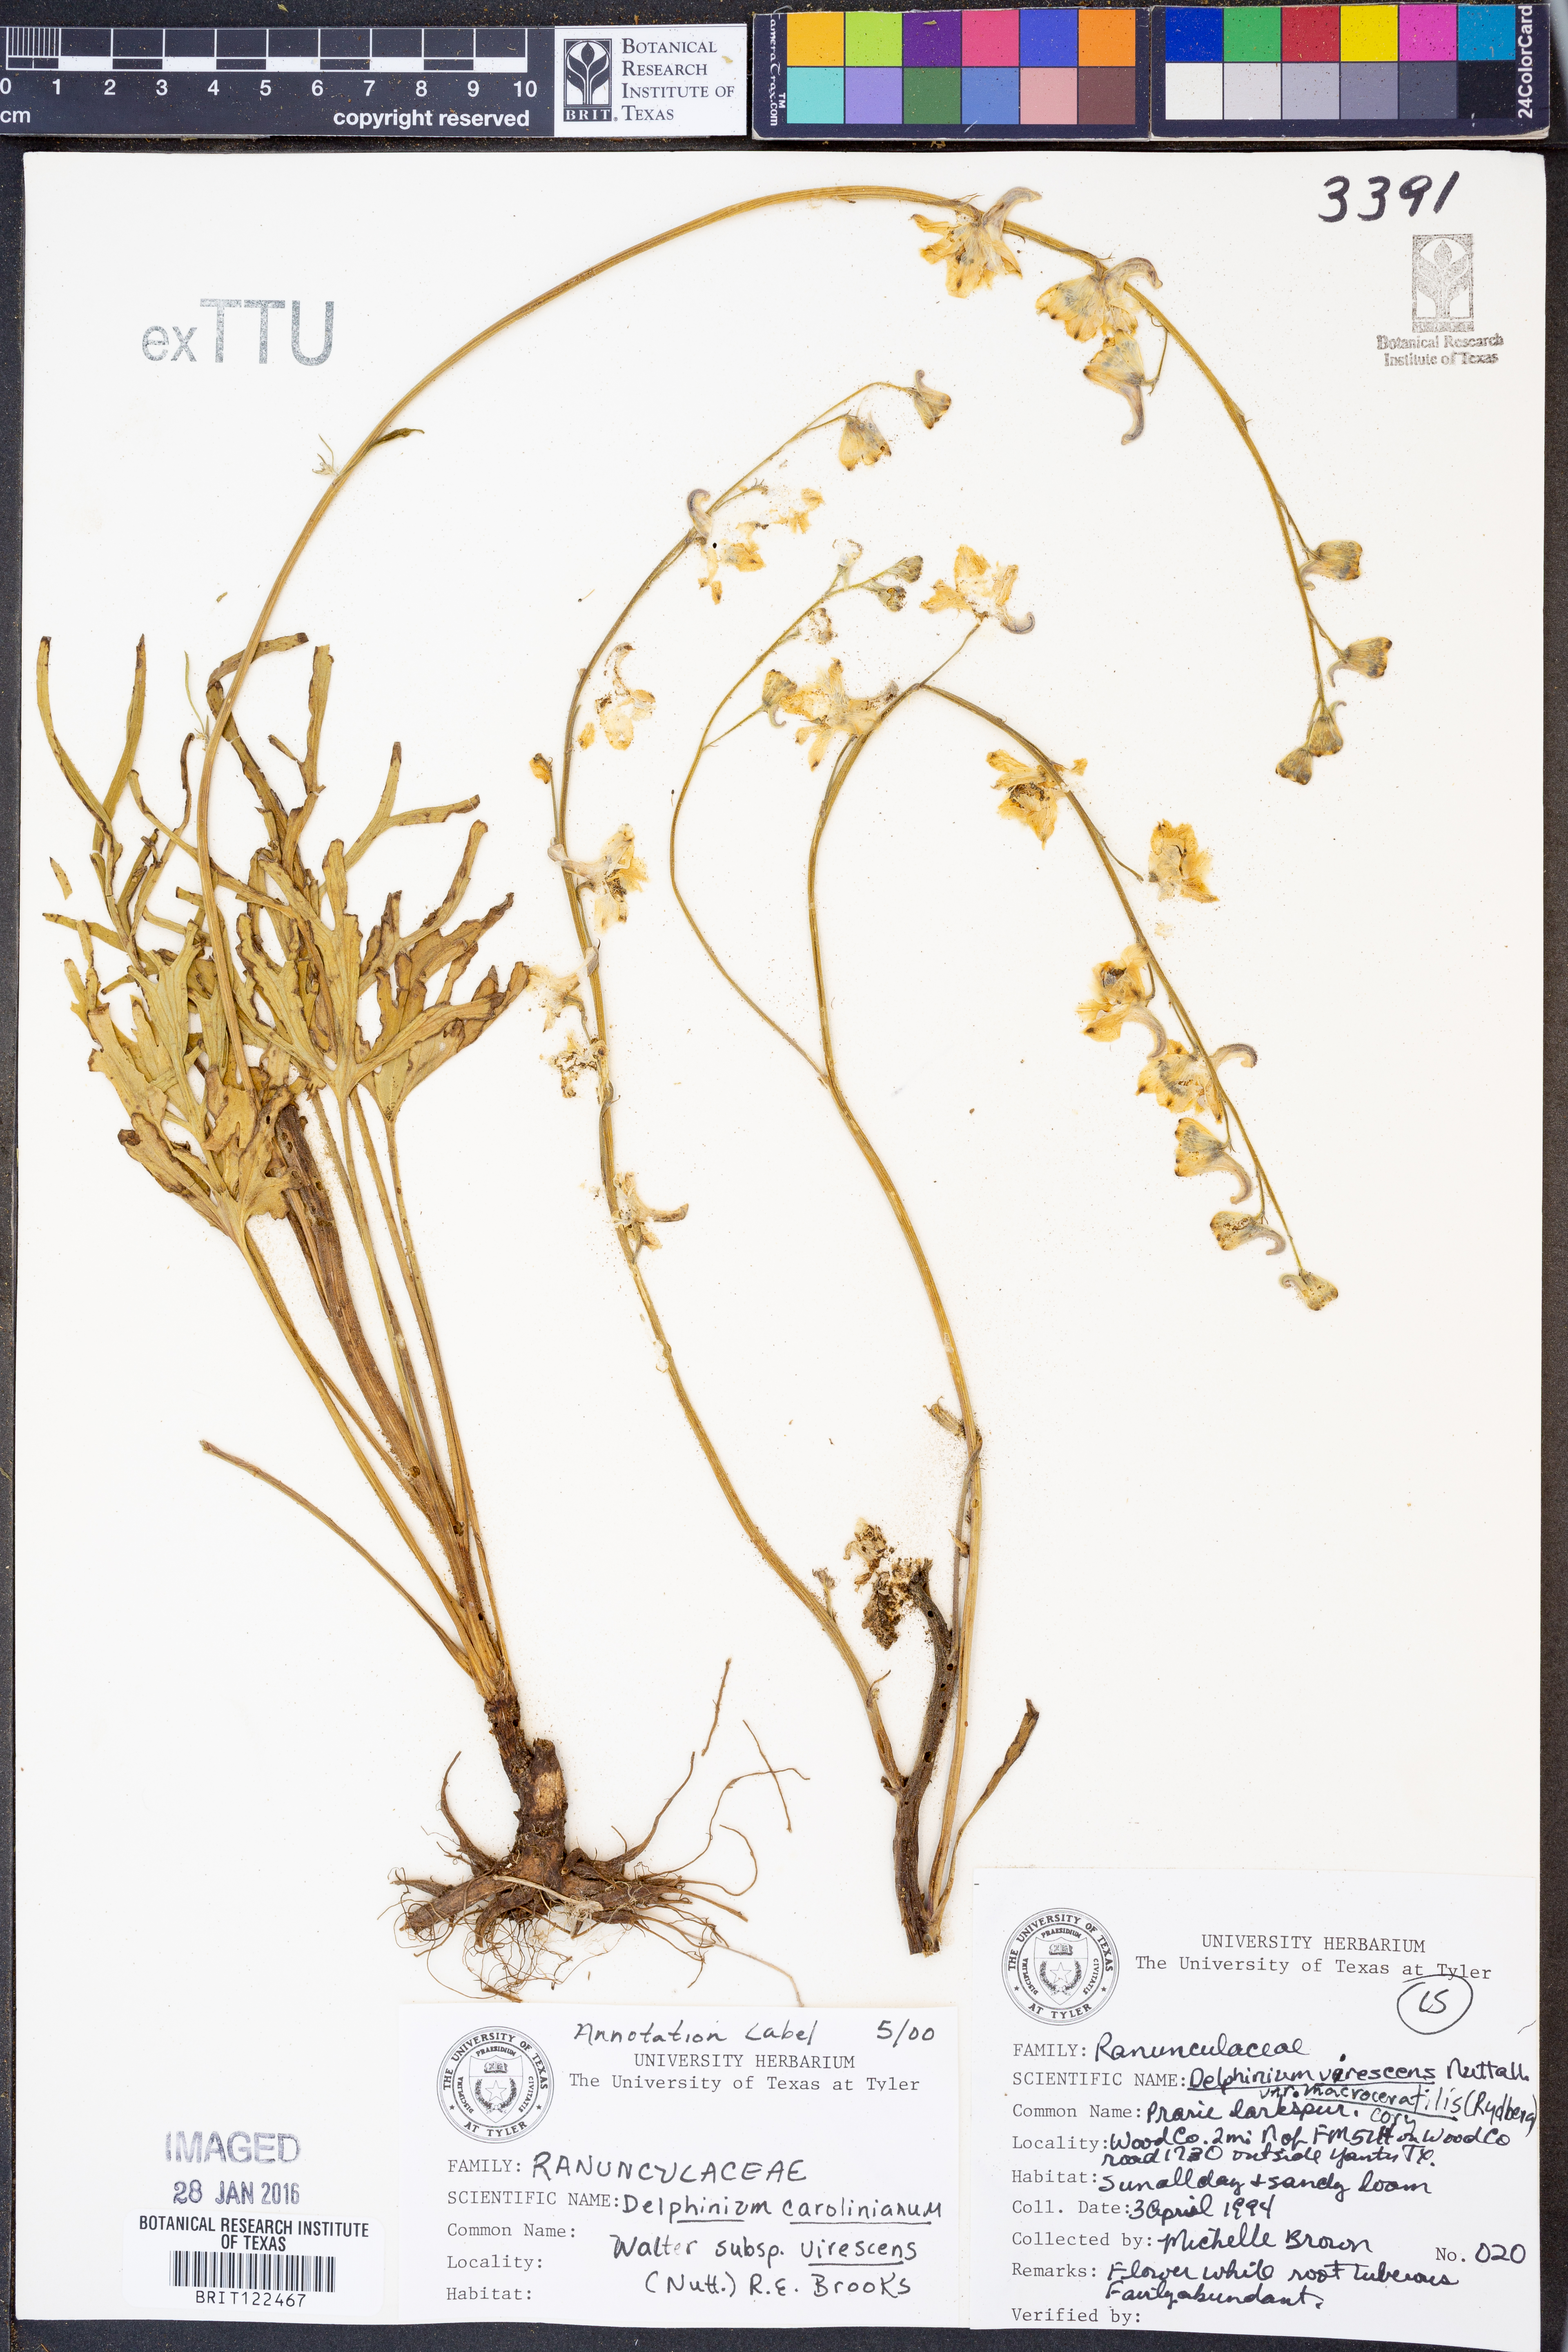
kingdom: Plantae
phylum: Tracheophyta
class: Magnoliopsida
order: Ranunculales
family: Ranunculaceae
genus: Delphinium
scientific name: Delphinium carolinianum
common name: Carolina larkspur
